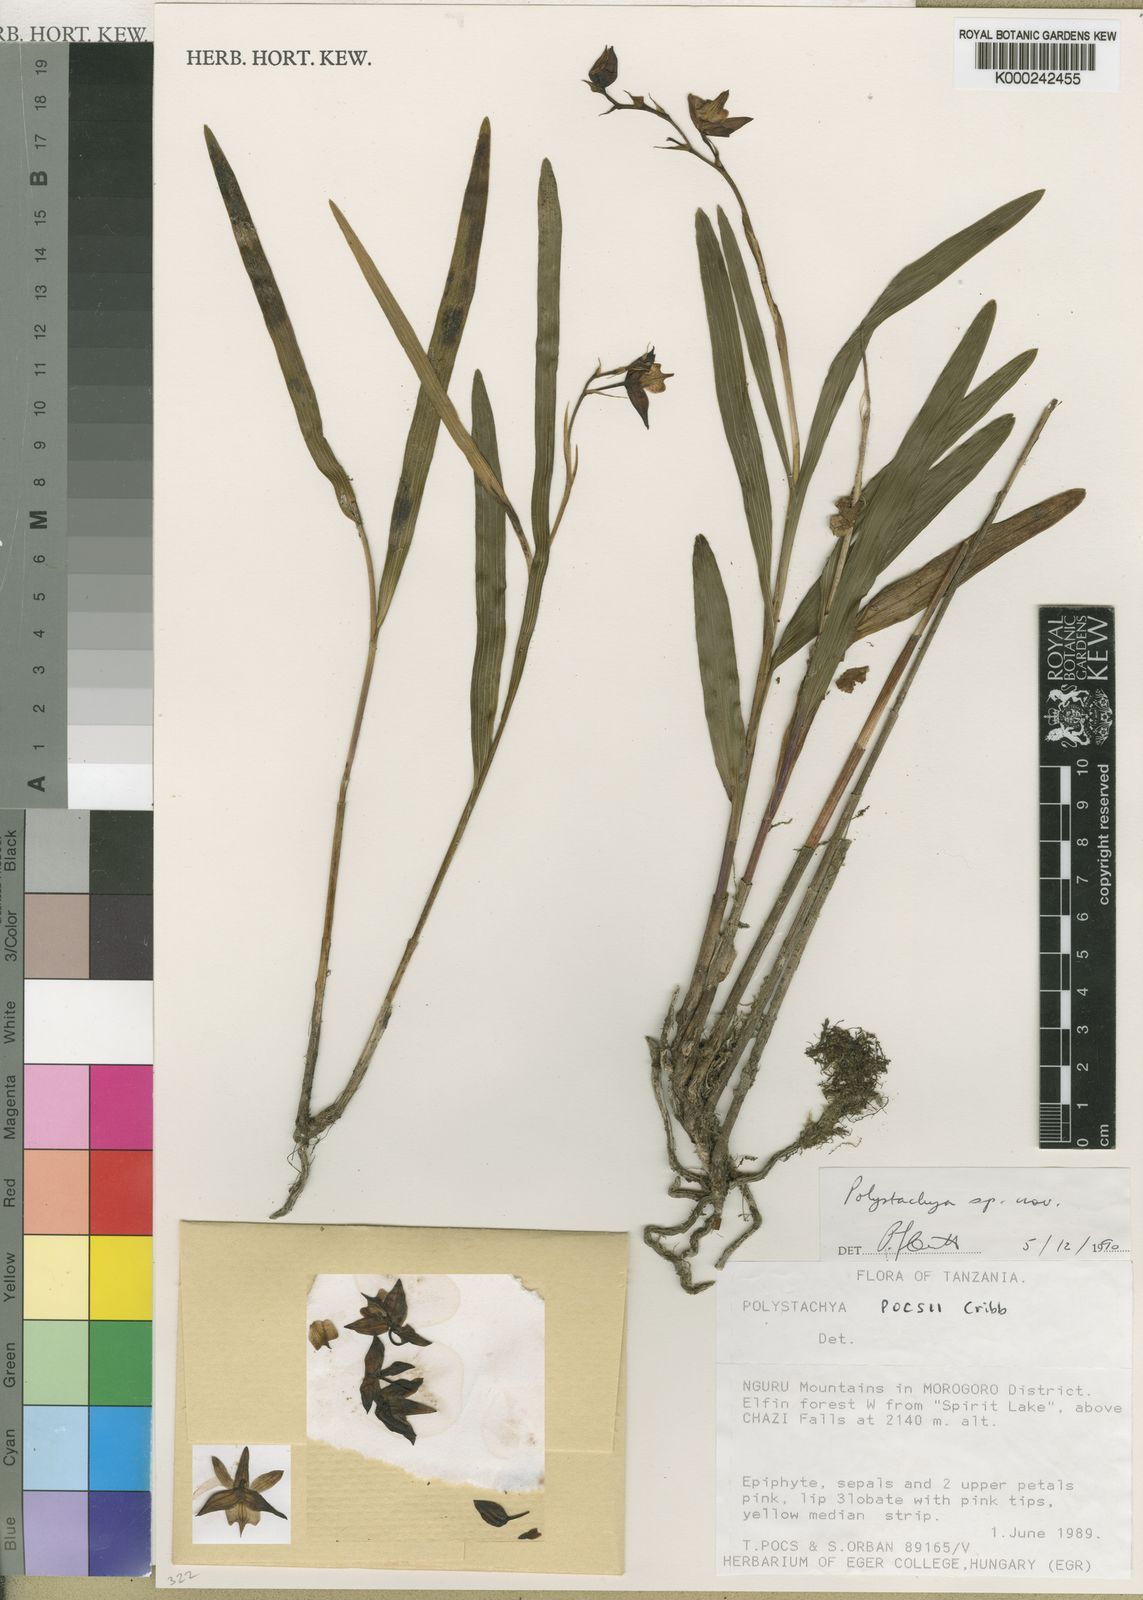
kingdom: Plantae
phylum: Tracheophyta
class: Liliopsida
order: Asparagales
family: Orchidaceae
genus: Polystachya
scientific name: Polystachya pocsii
